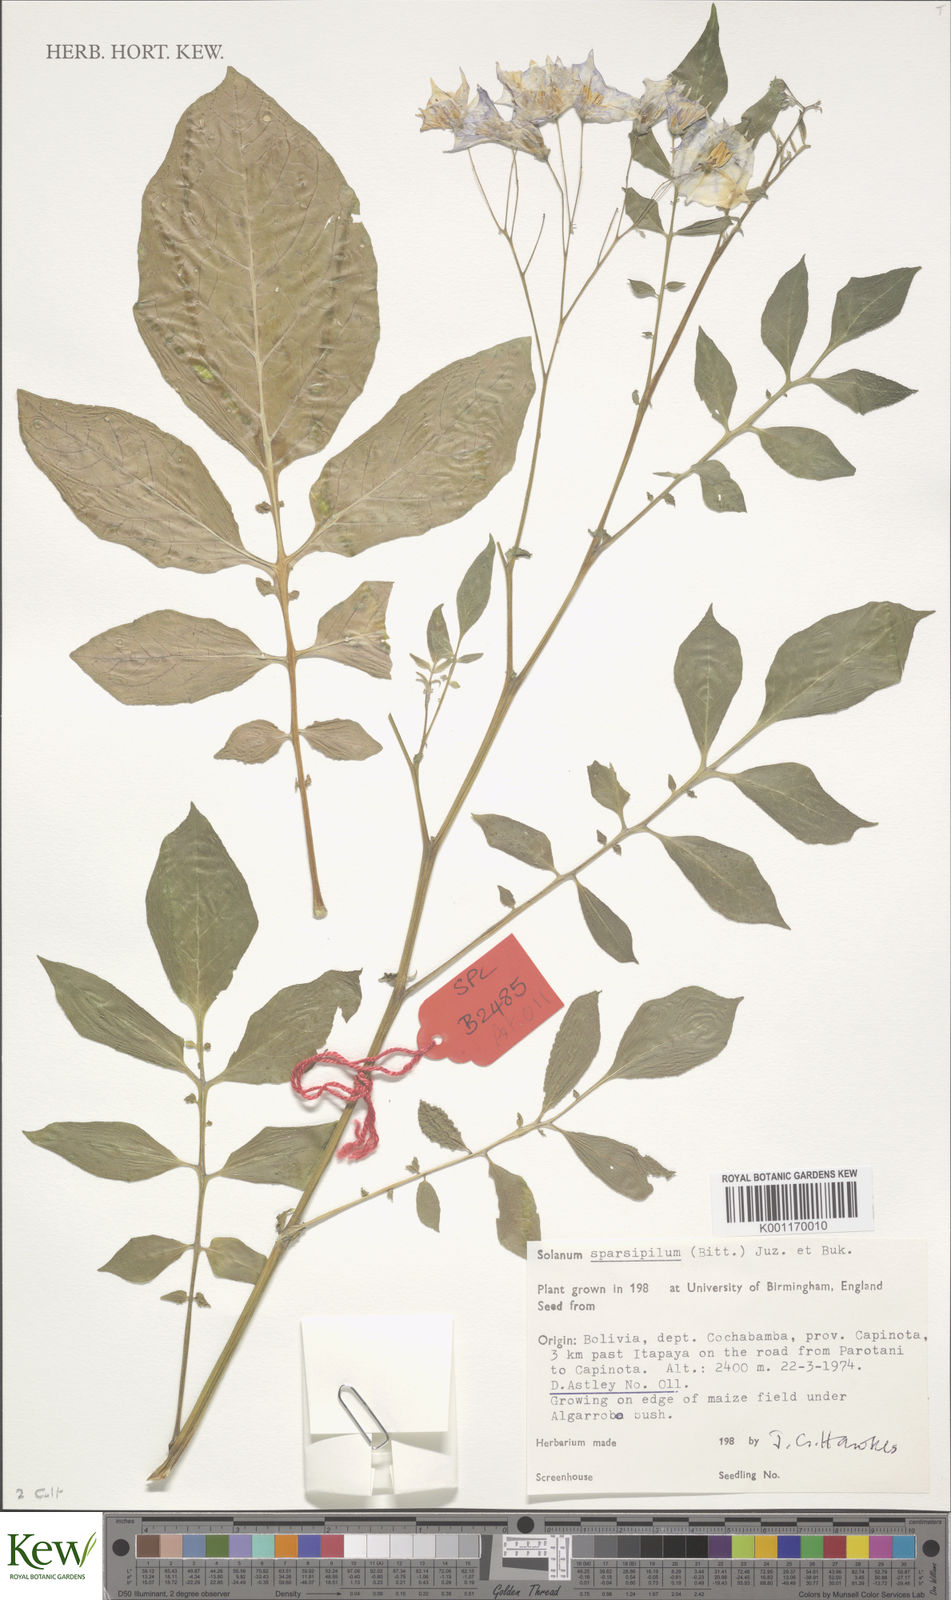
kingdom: Plantae
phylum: Tracheophyta
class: Magnoliopsida
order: Solanales
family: Solanaceae
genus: Solanum
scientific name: Solanum brevicaule
